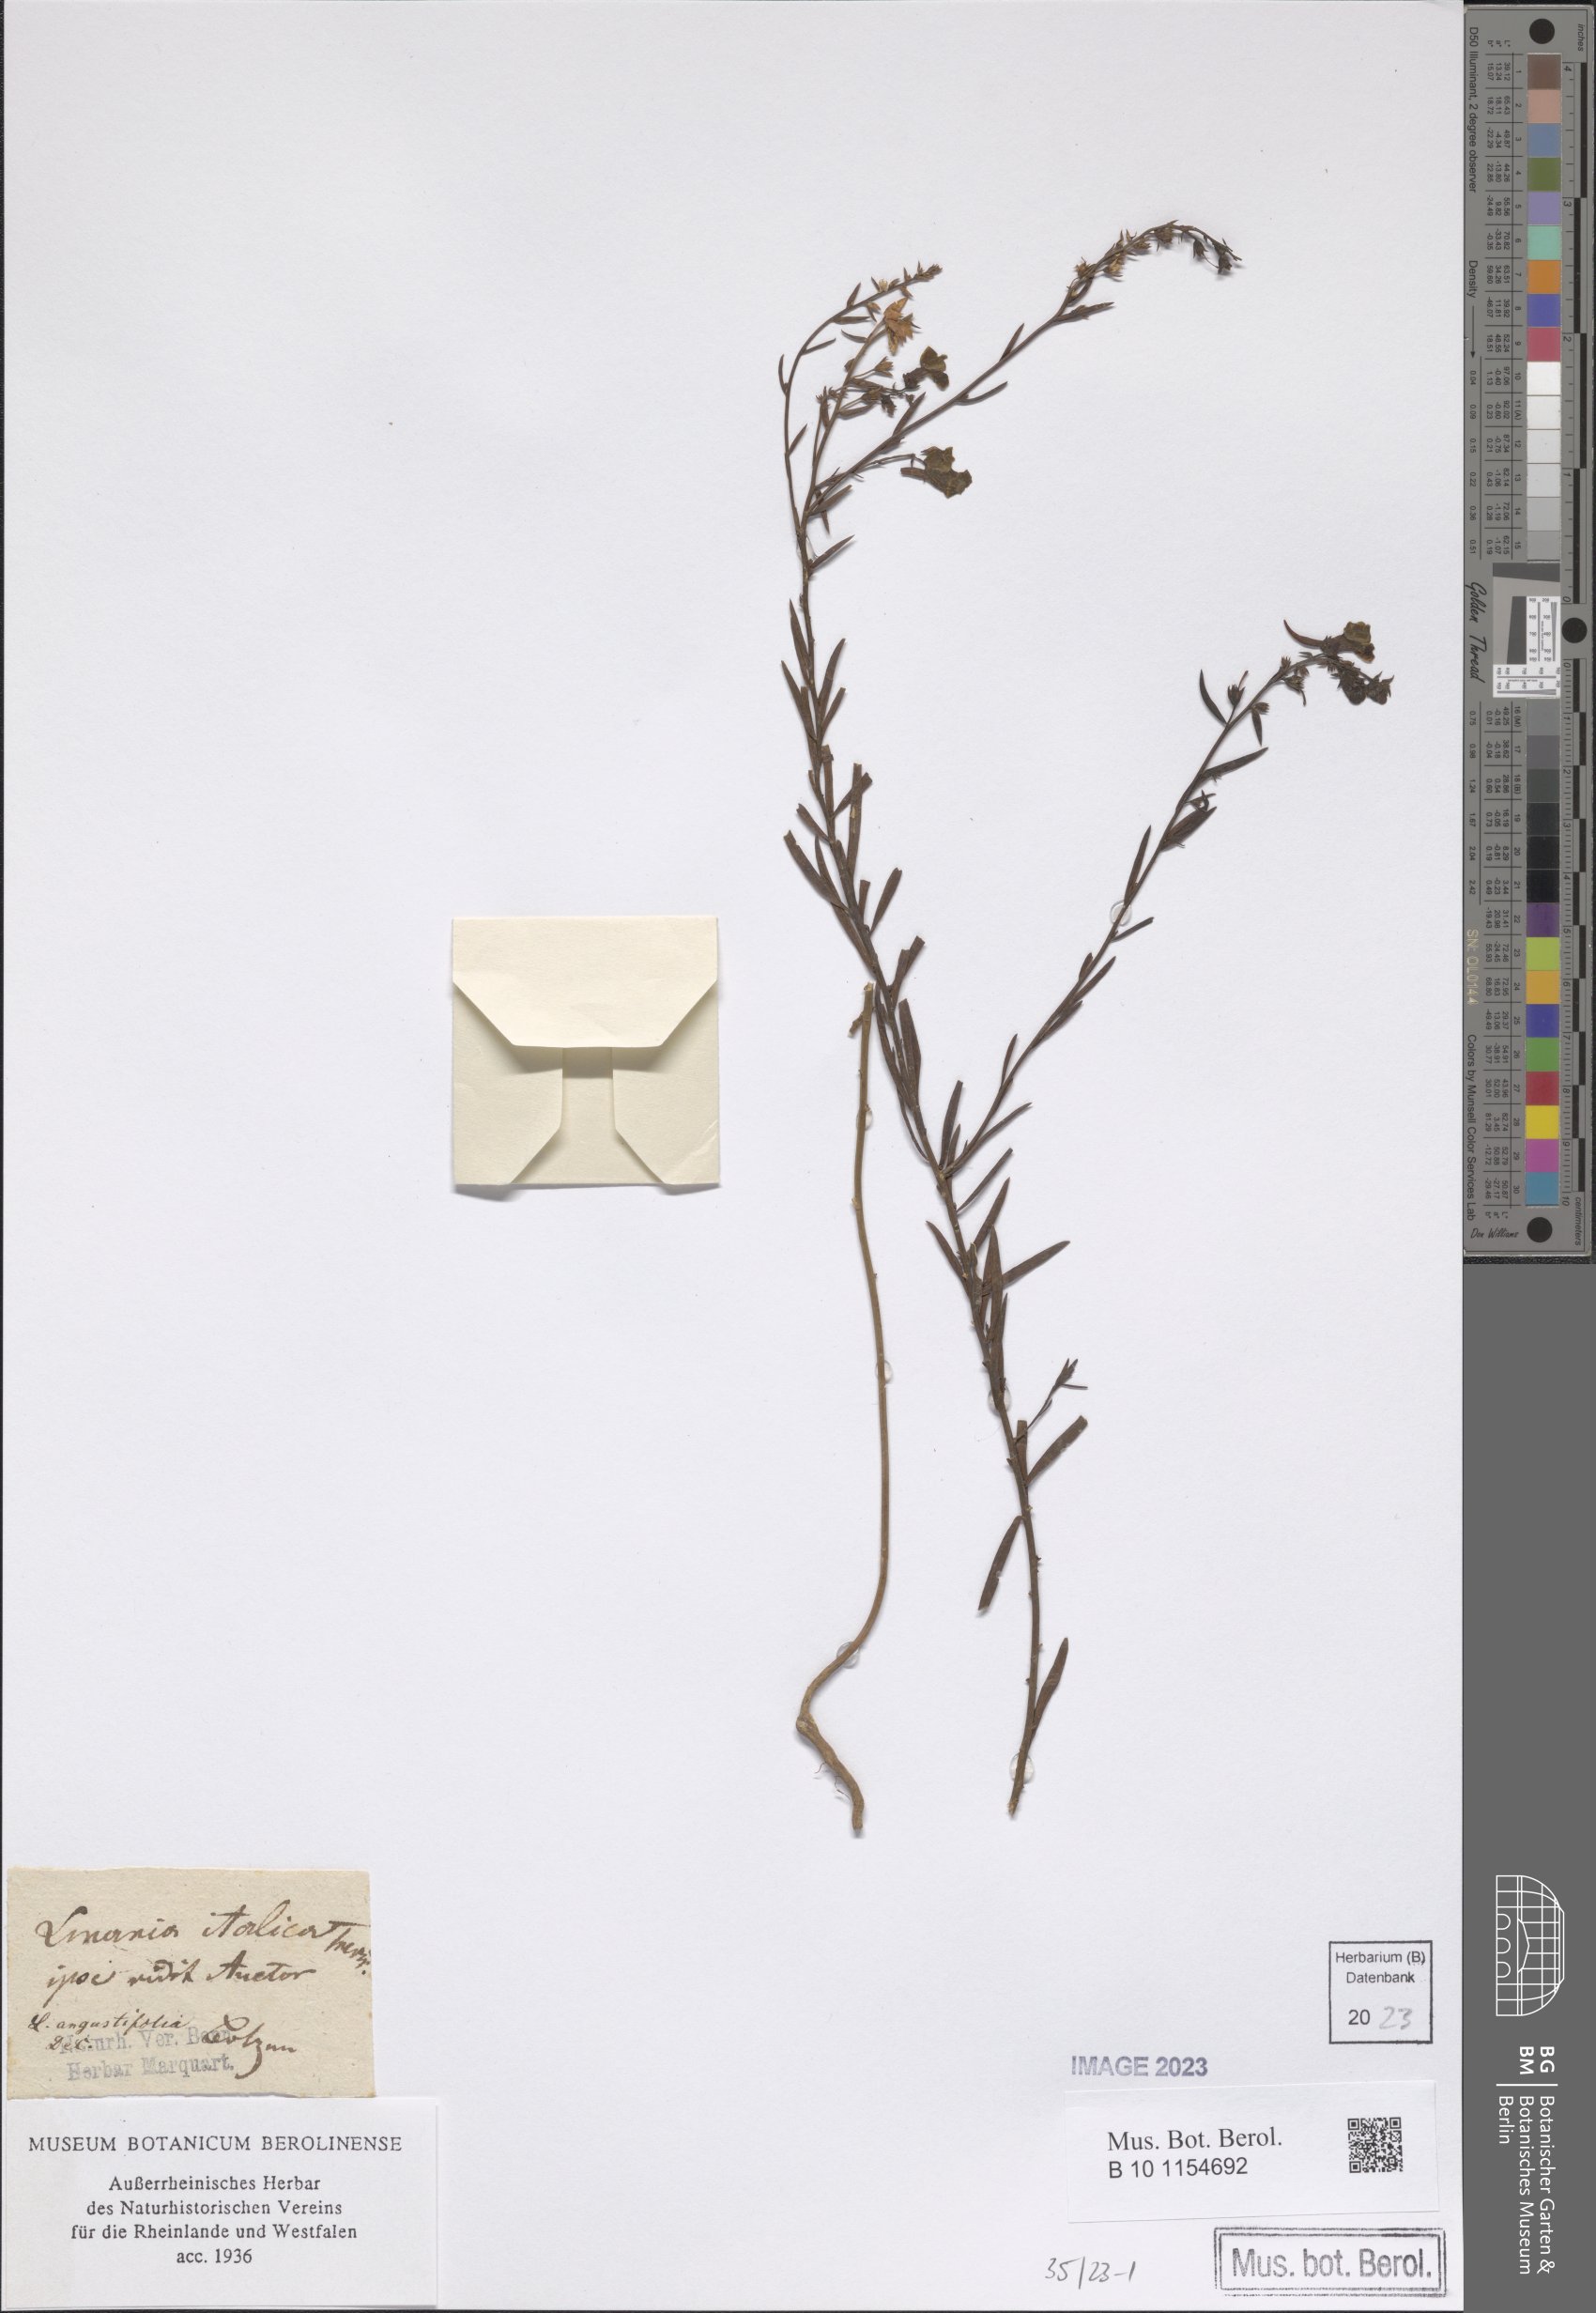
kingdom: Plantae
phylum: Tracheophyta
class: Magnoliopsida
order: Lamiales
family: Plantaginaceae
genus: Linaria
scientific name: Linaria angustissima
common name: Italian toadflax
